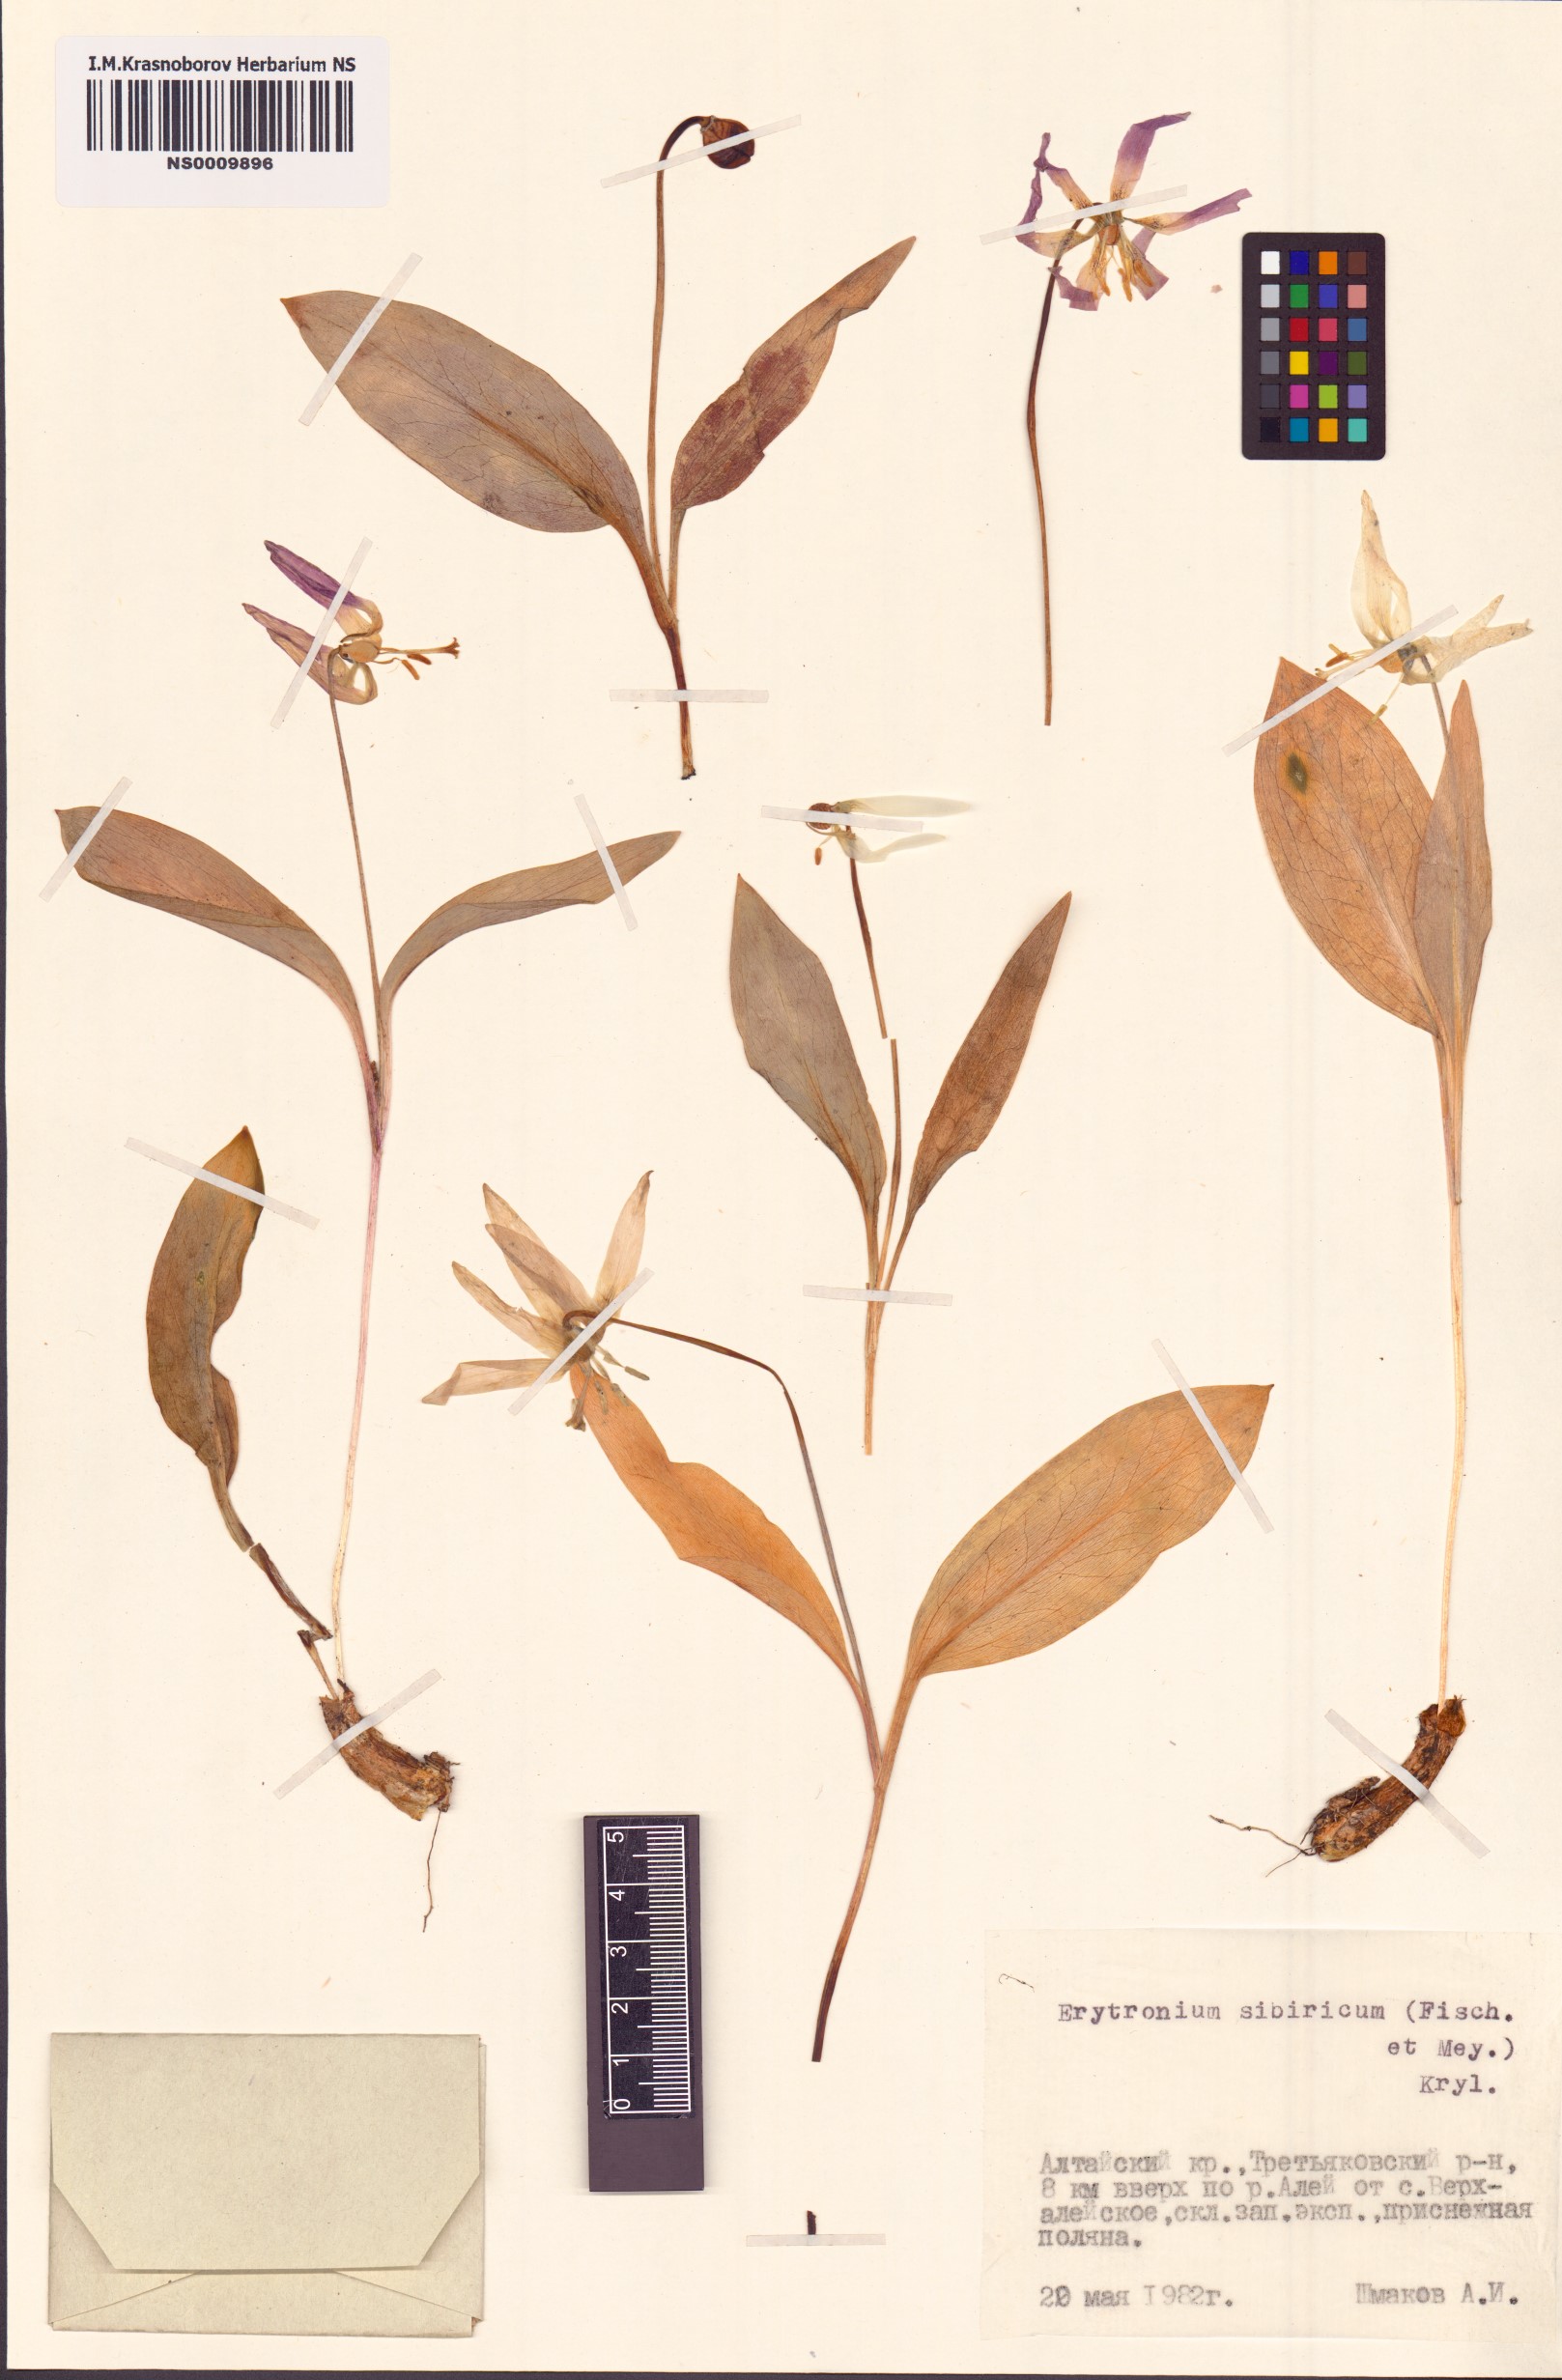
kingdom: Plantae
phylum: Tracheophyta
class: Liliopsida
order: Liliales
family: Liliaceae
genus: Erythronium
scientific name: Erythronium sibiricum
